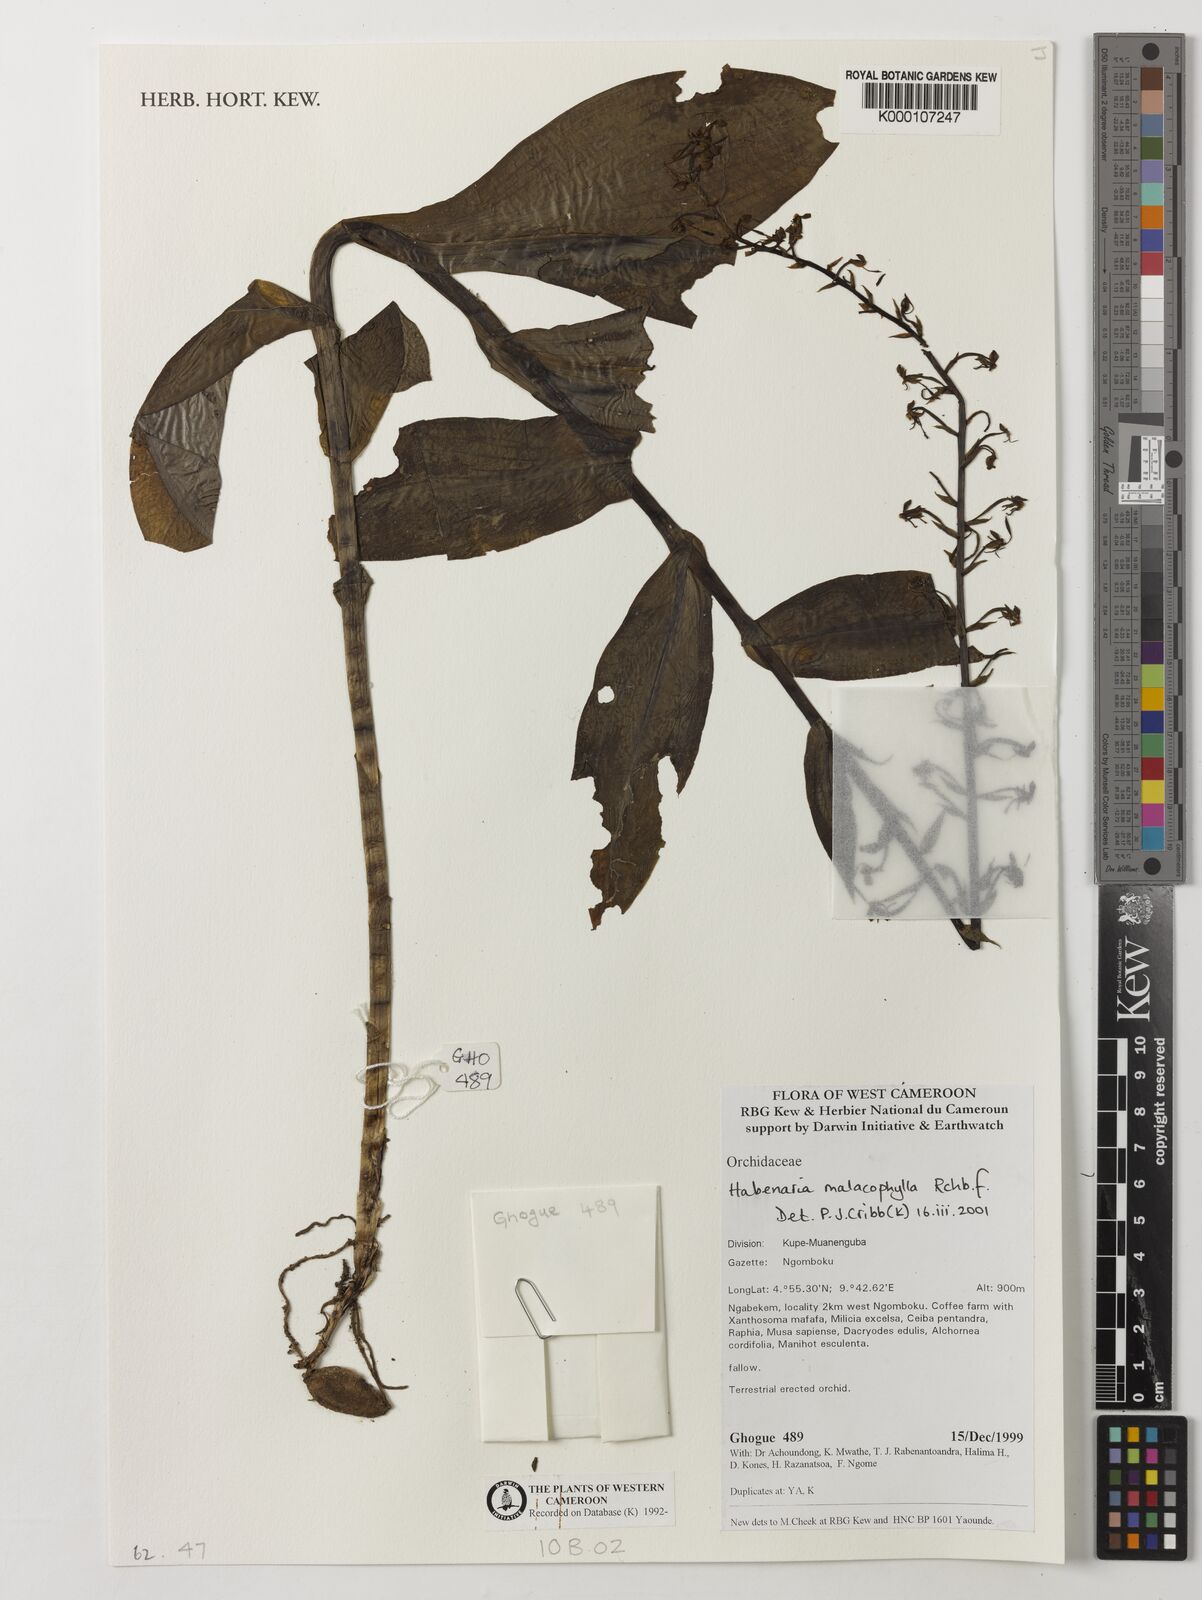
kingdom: Plantae
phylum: Tracheophyta
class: Liliopsida
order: Asparagales
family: Orchidaceae
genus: Habenaria
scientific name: Habenaria malacophylla
